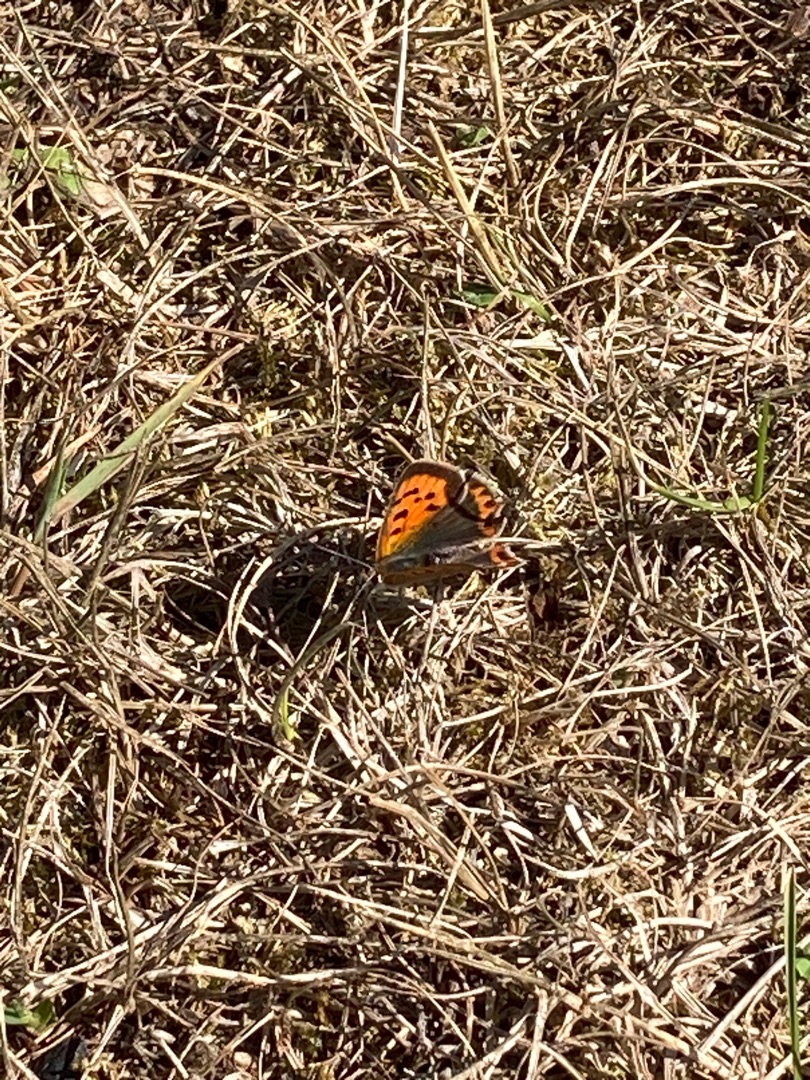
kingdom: Animalia
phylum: Arthropoda
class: Insecta
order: Lepidoptera
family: Lycaenidae
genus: Lycaena
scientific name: Lycaena phlaeas
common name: Lille ildfugl
